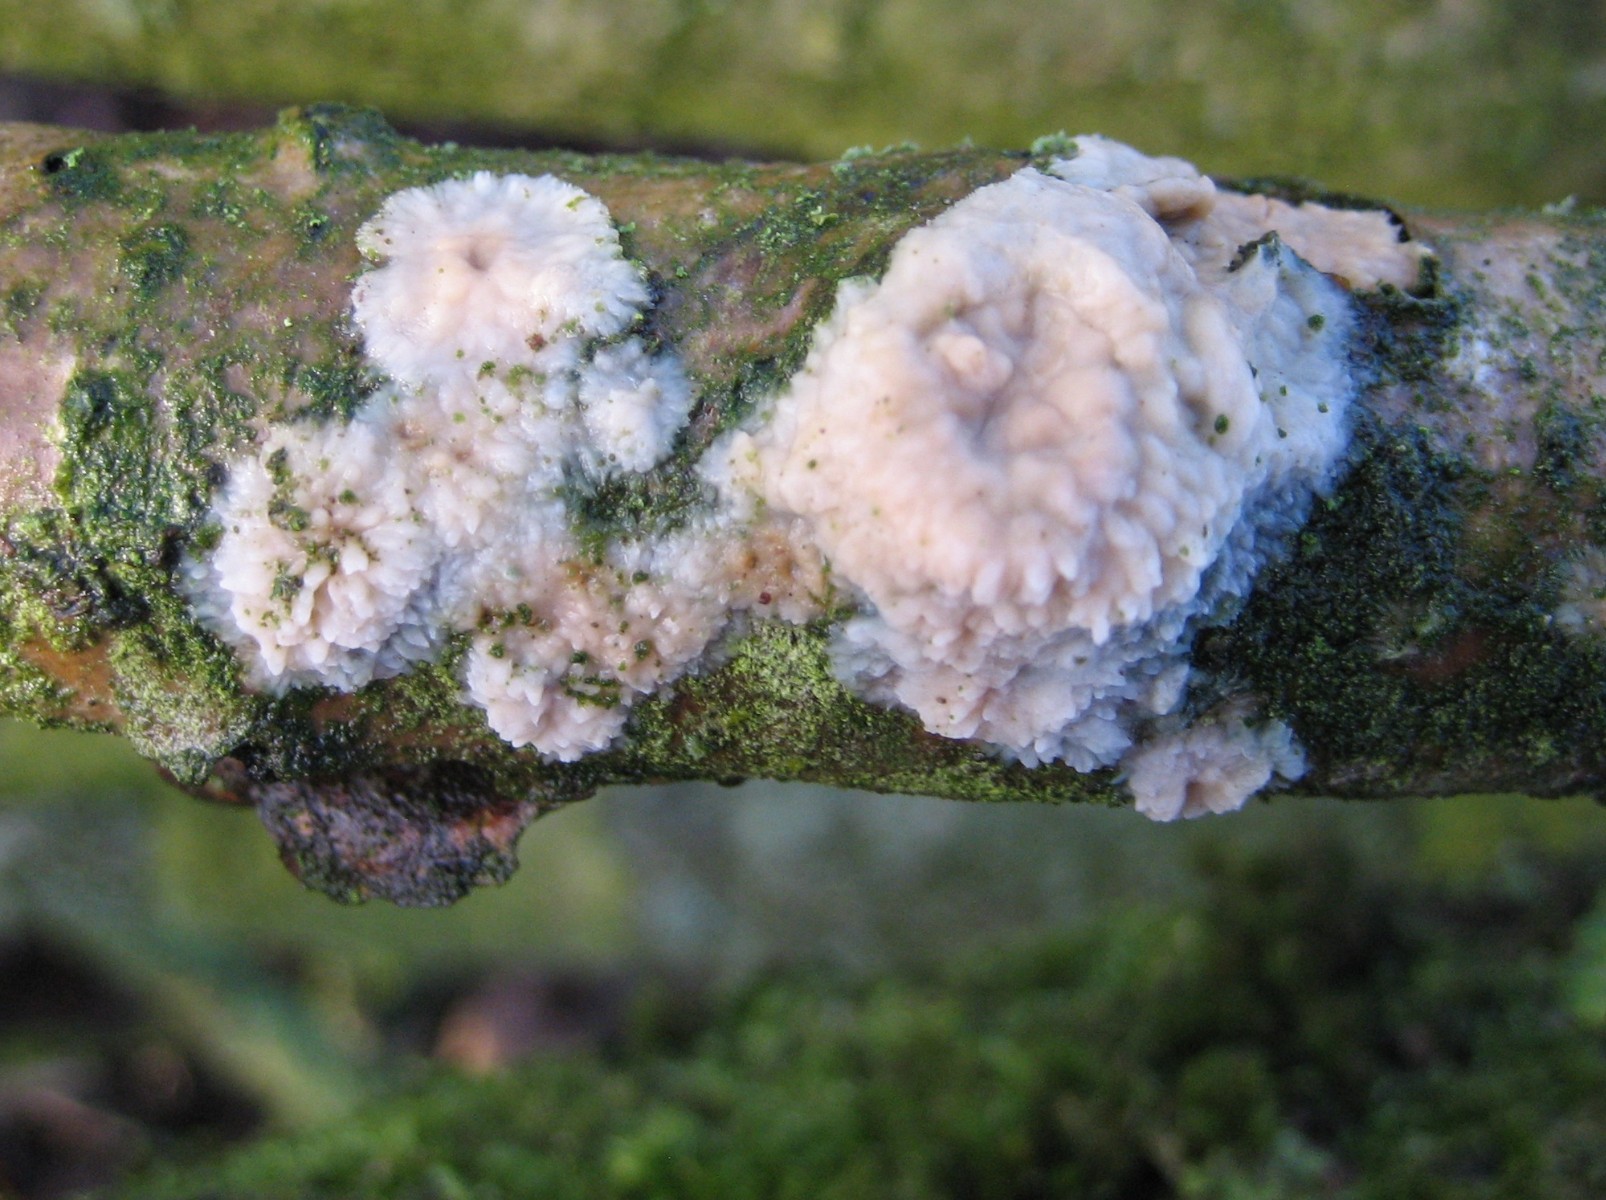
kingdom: Fungi
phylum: Basidiomycota
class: Agaricomycetes
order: Corticiales
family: Corticiaceae
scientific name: Corticiaceae
